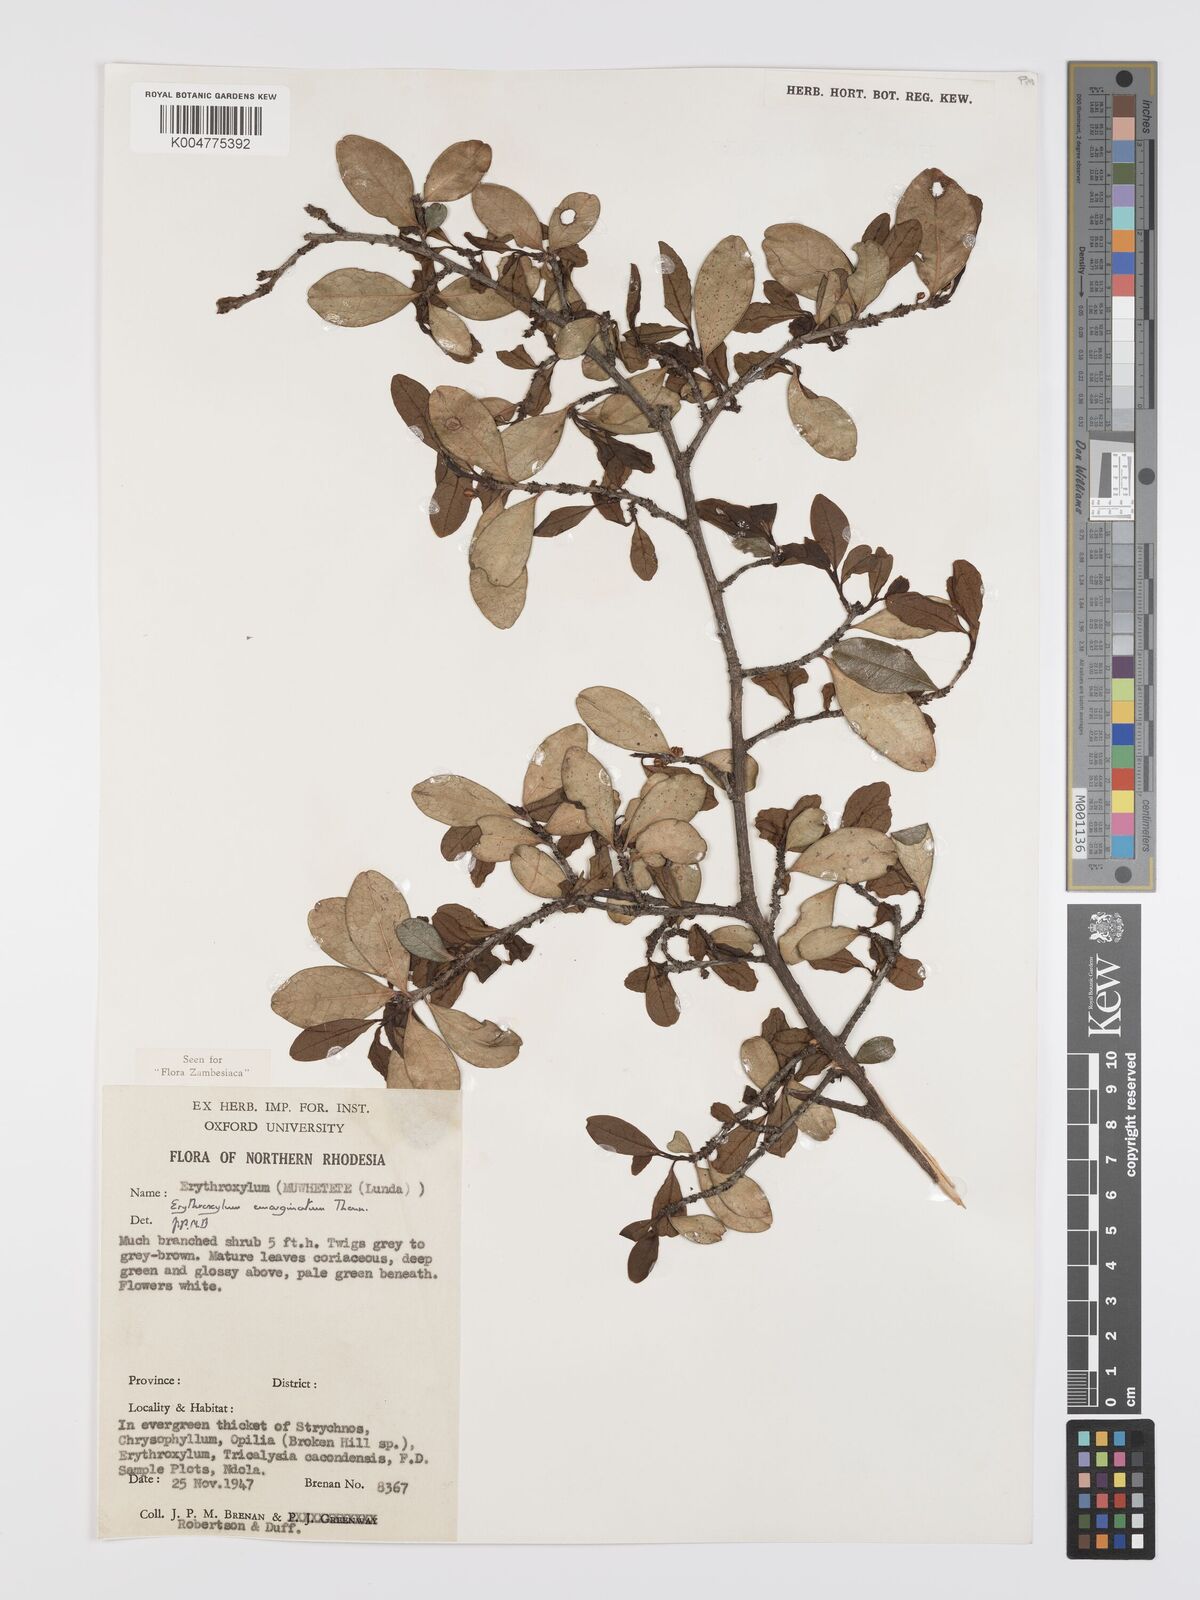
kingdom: Plantae
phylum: Tracheophyta
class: Magnoliopsida
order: Malpighiales
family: Erythroxylaceae
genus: Erythroxylum
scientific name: Erythroxylum emarginatum
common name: African coca-tree
